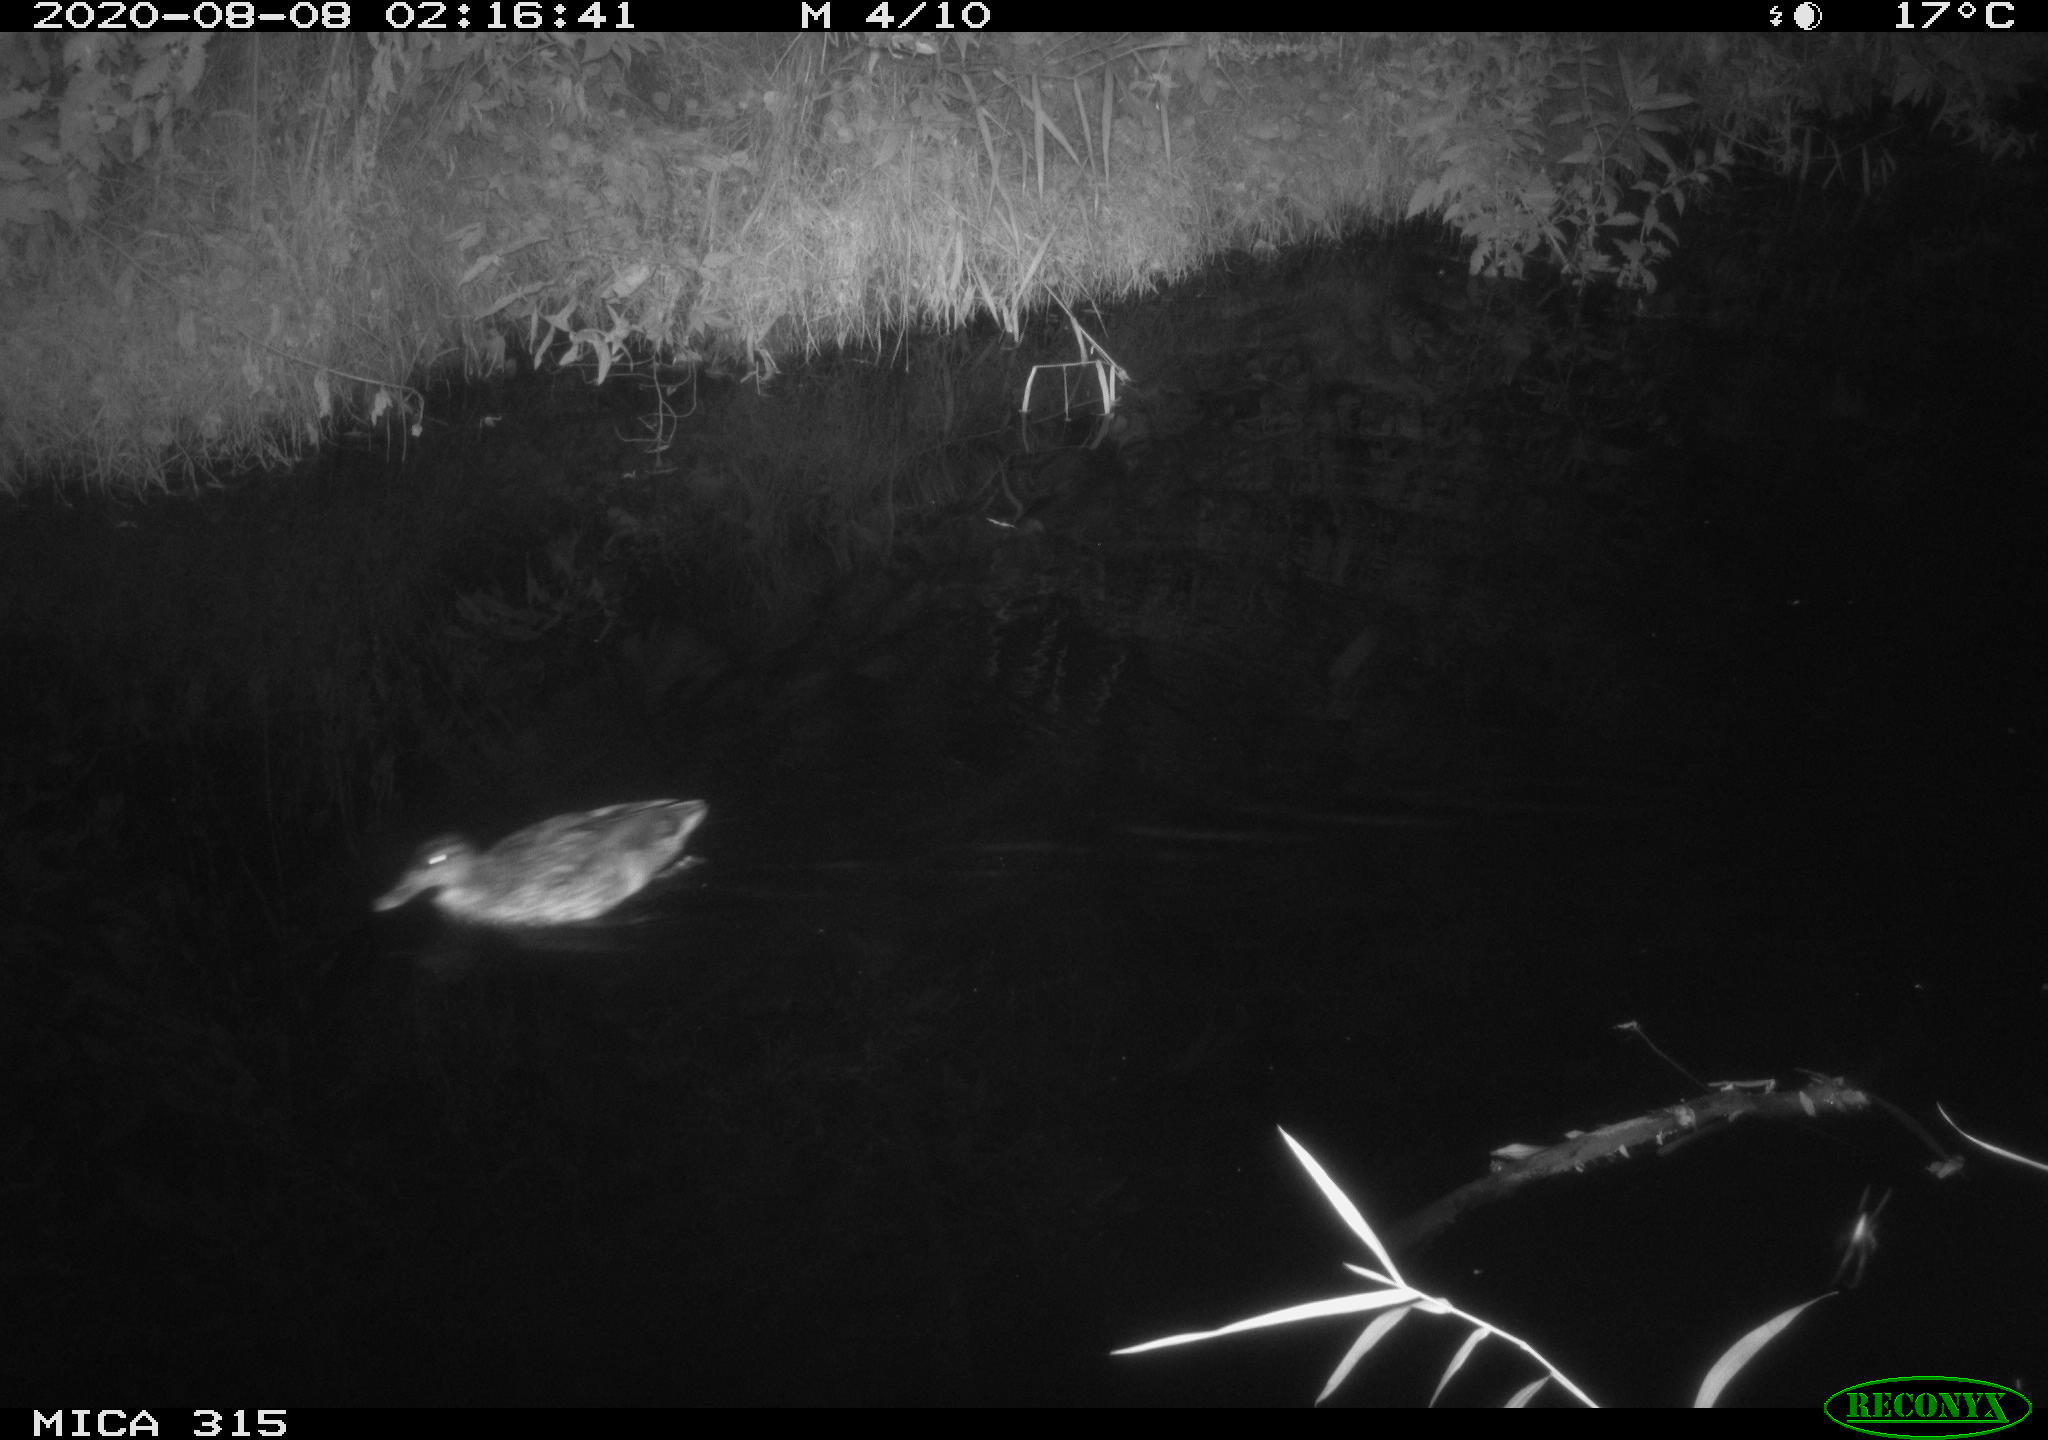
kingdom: Animalia
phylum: Chordata
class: Aves
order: Anseriformes
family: Anatidae
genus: Anas
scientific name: Anas platyrhynchos
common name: Mallard
